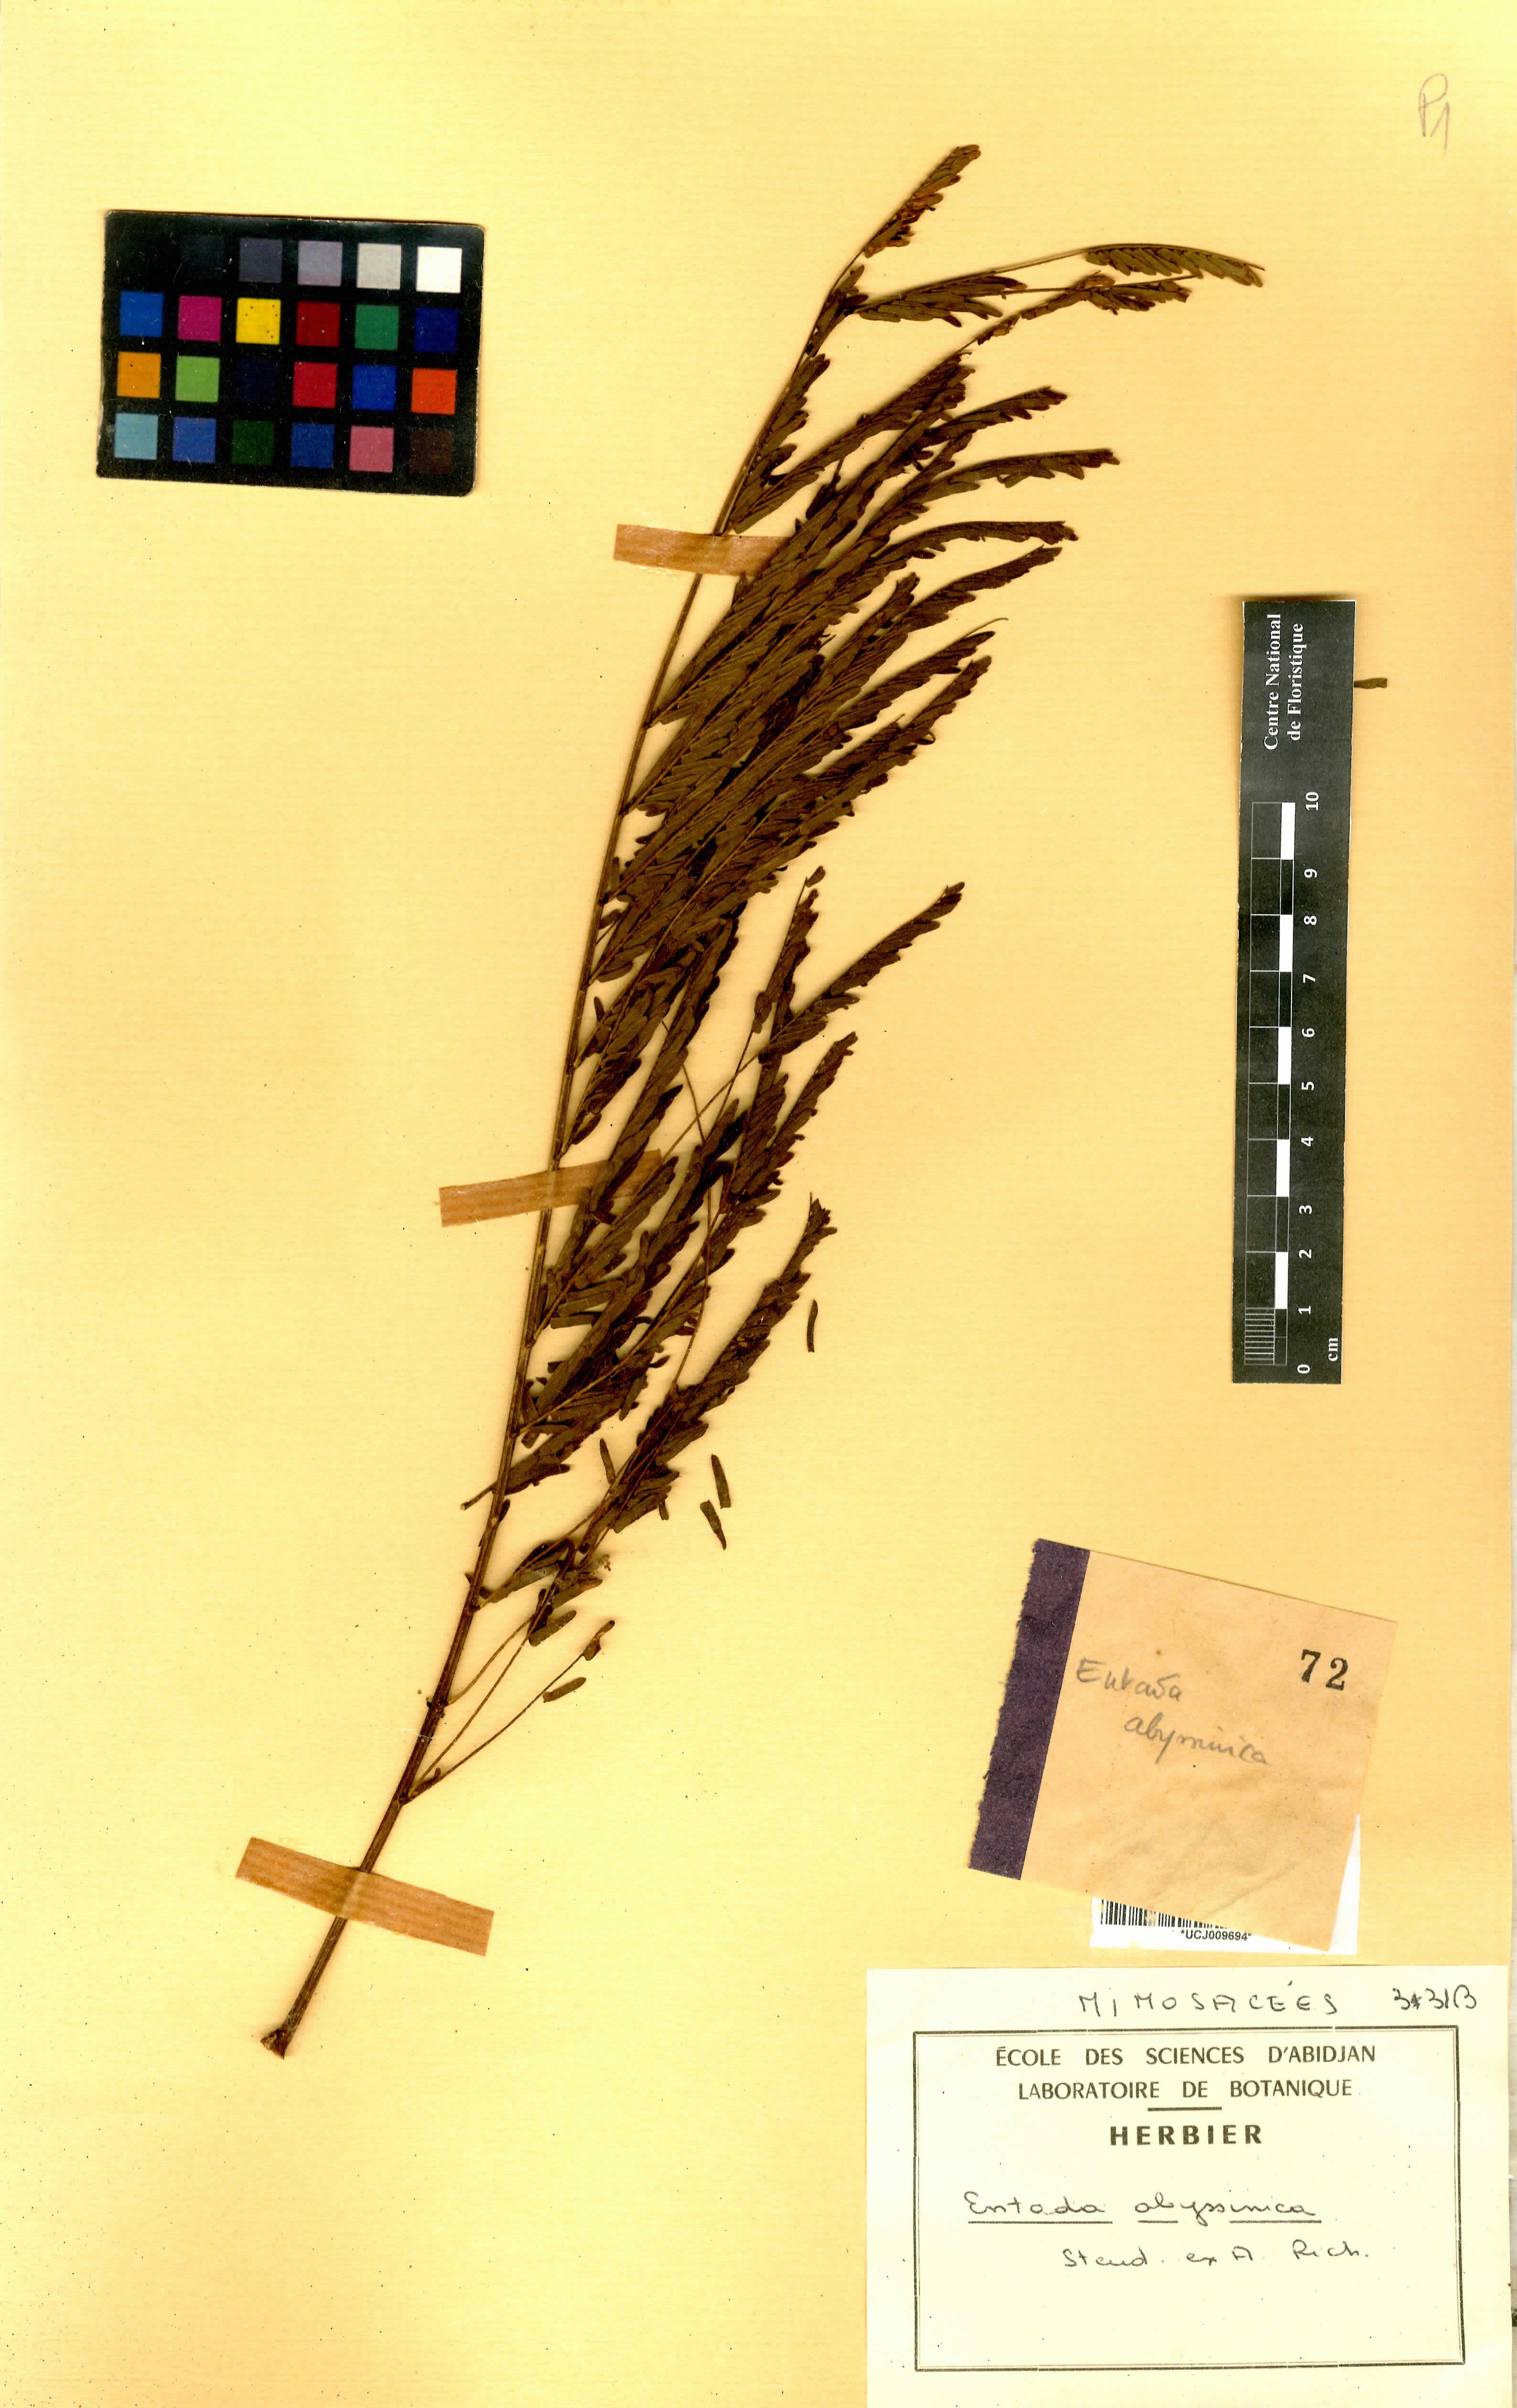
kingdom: Plantae
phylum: Tracheophyta
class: Magnoliopsida
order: Fabales
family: Fabaceae
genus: Entada
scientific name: Entada abyssinica
